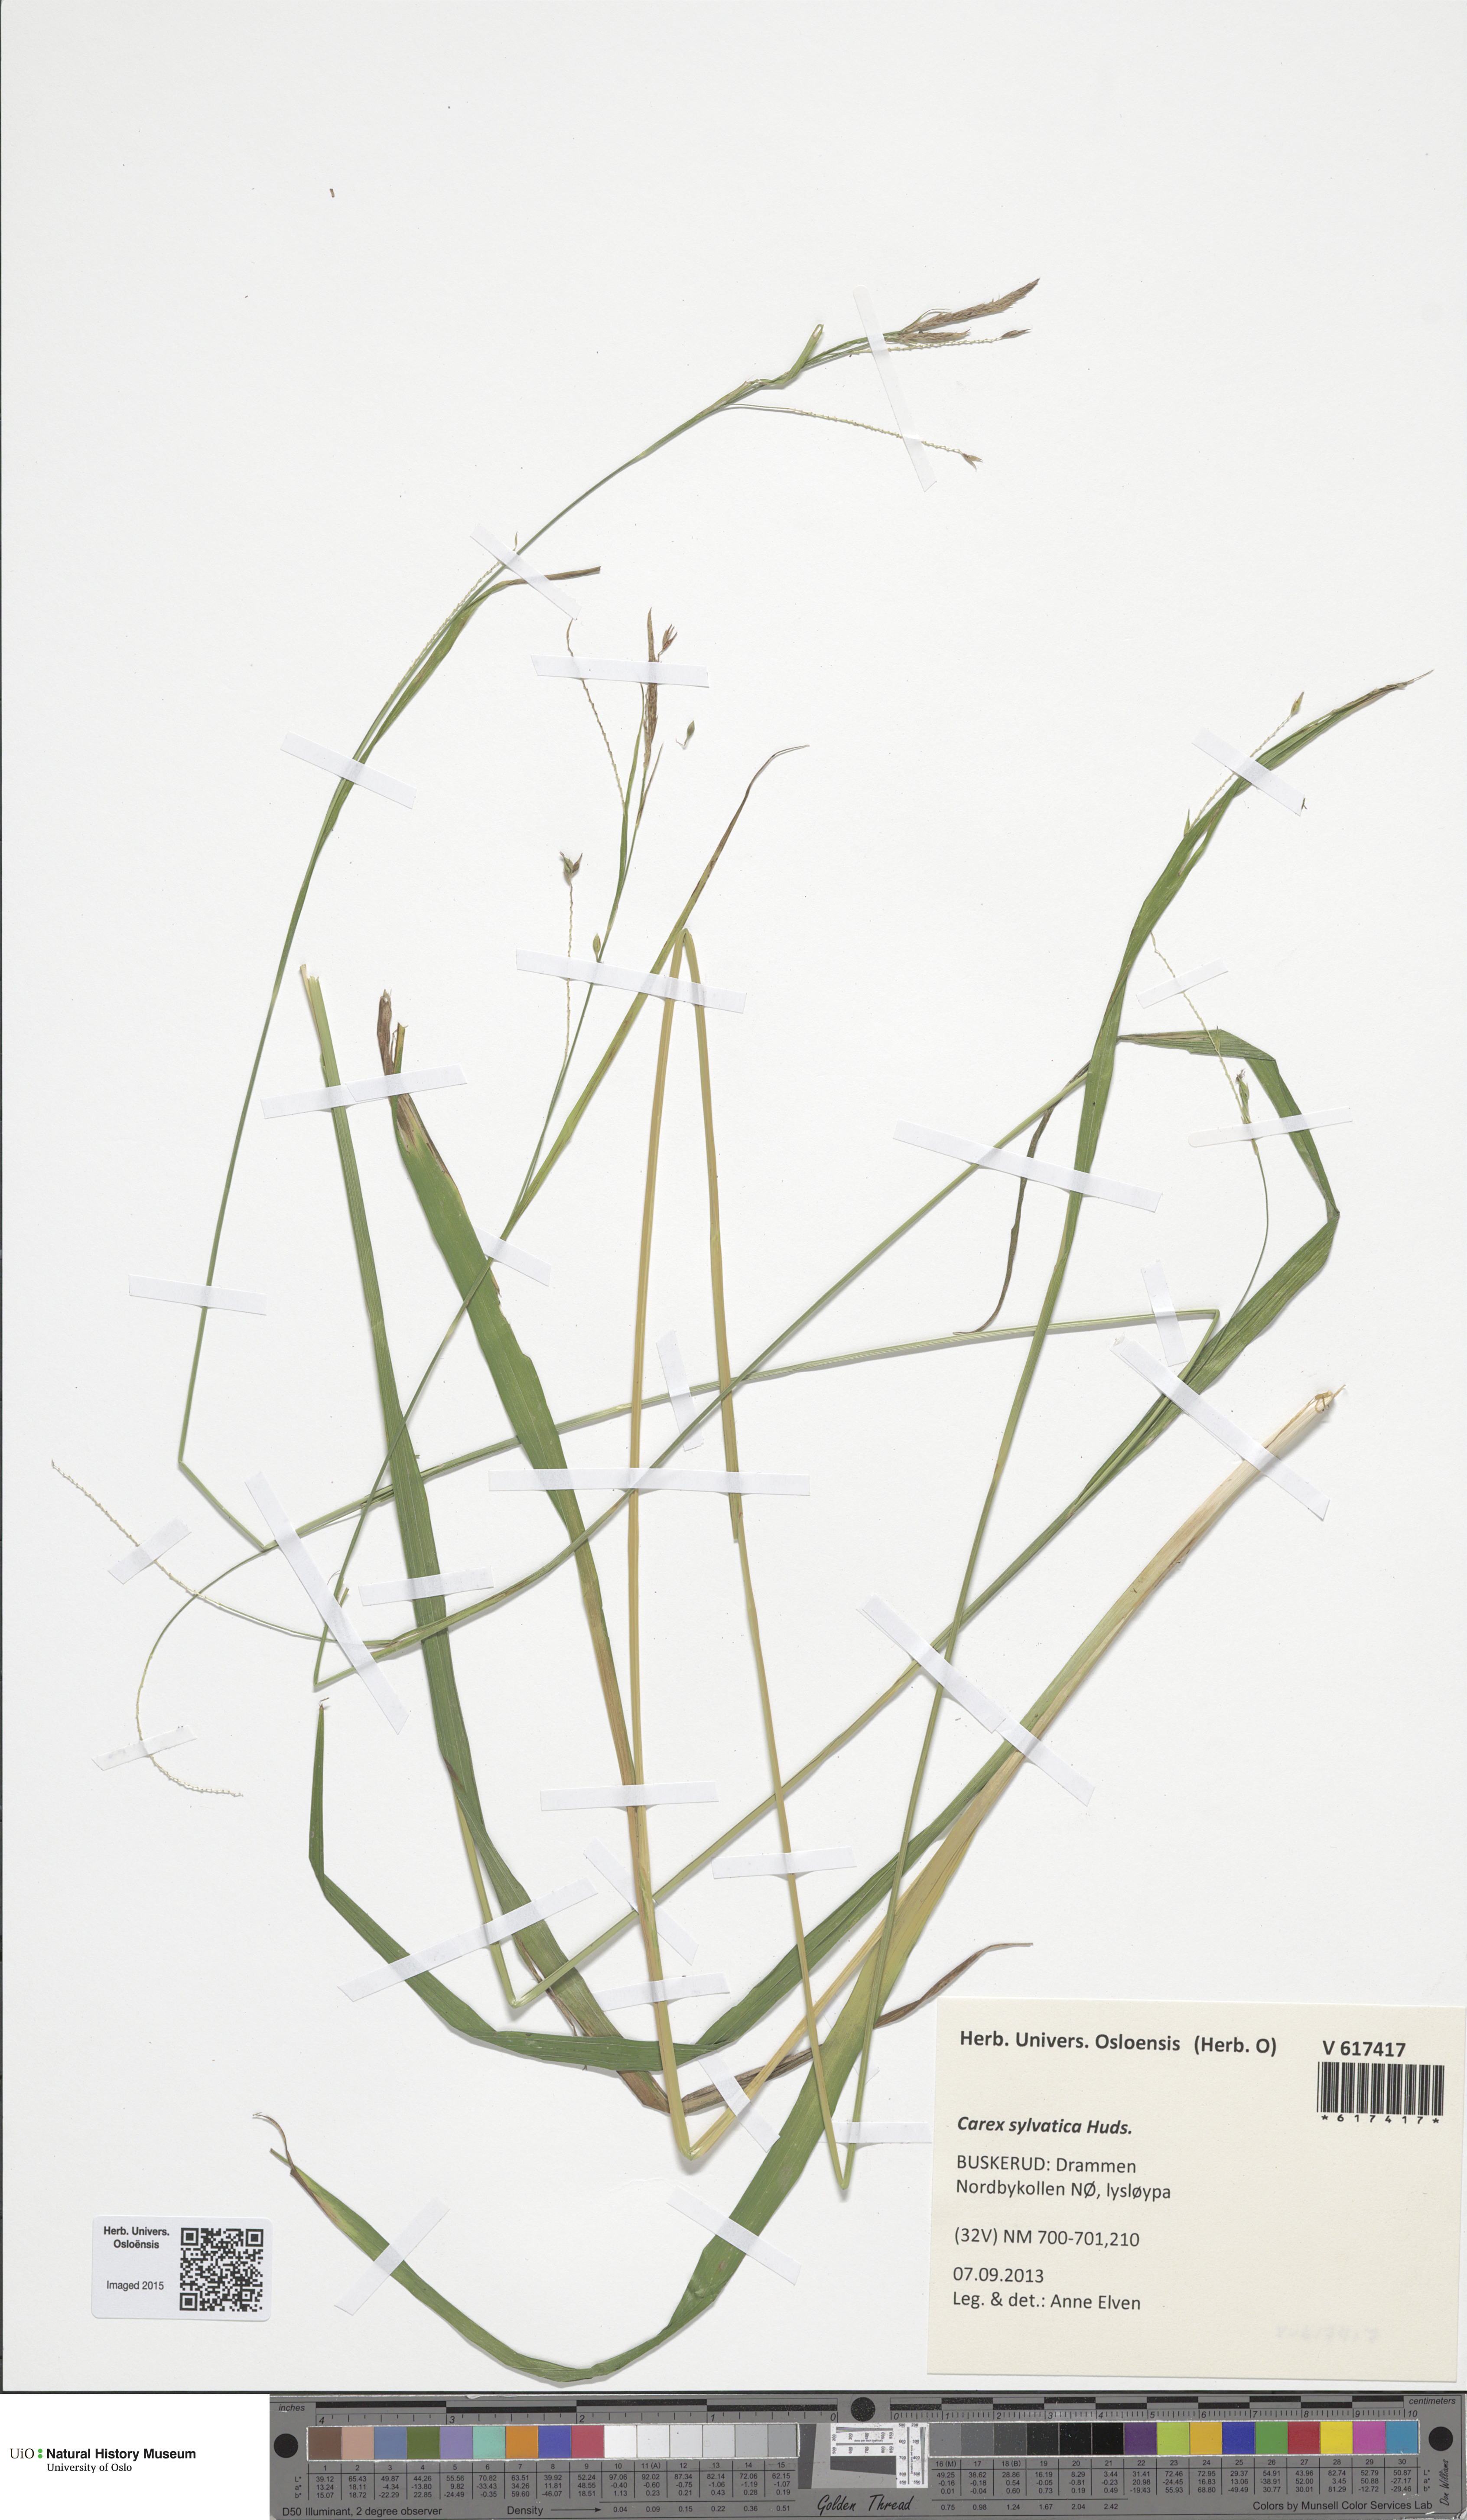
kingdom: Plantae
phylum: Tracheophyta
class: Liliopsida
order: Poales
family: Cyperaceae
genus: Carex
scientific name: Carex sylvatica
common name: Wood-sedge
